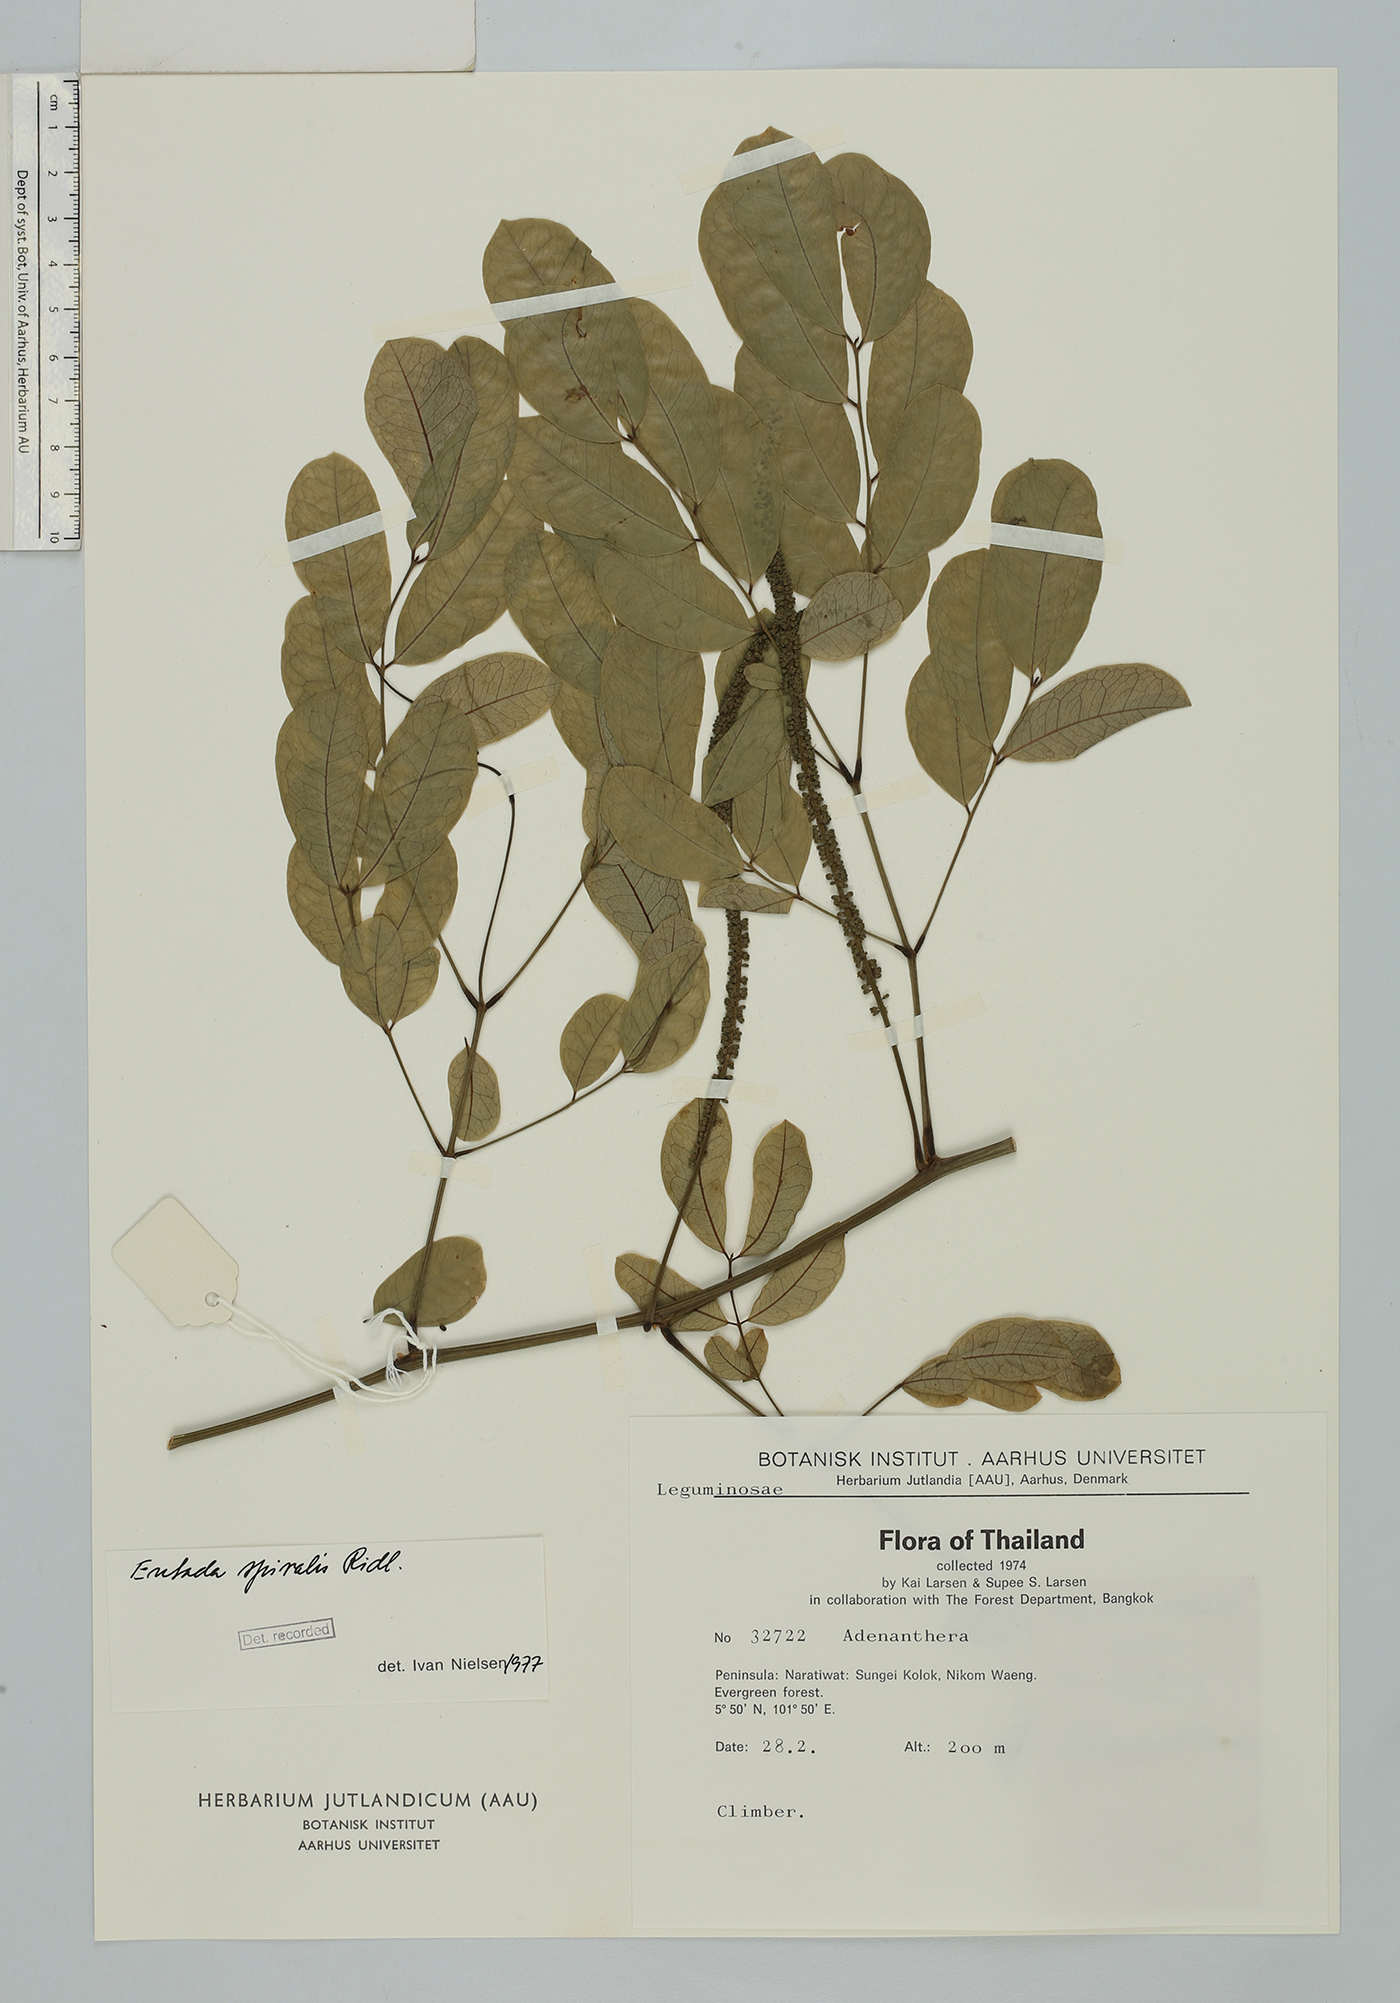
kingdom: Plantae
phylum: Tracheophyta
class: Magnoliopsida
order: Fabales
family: Fabaceae
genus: Entada
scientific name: Entada spiralis
